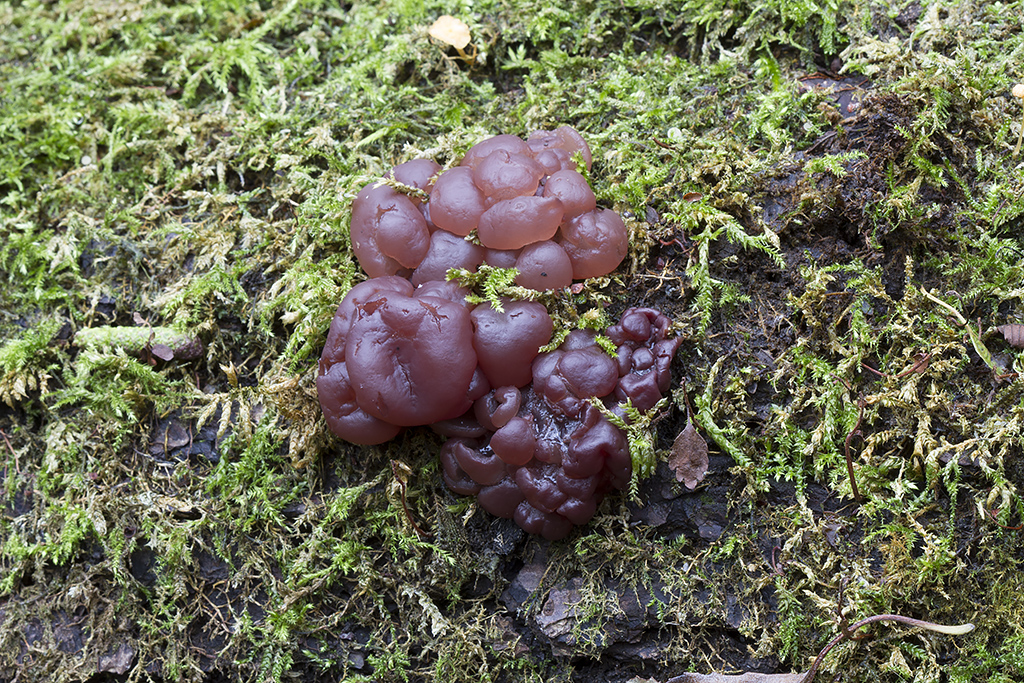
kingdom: Fungi
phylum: Ascomycota
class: Leotiomycetes
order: Helotiales
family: Gelatinodiscaceae
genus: Ascotremella
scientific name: Ascotremella faginea
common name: hjerne-bævreskive
